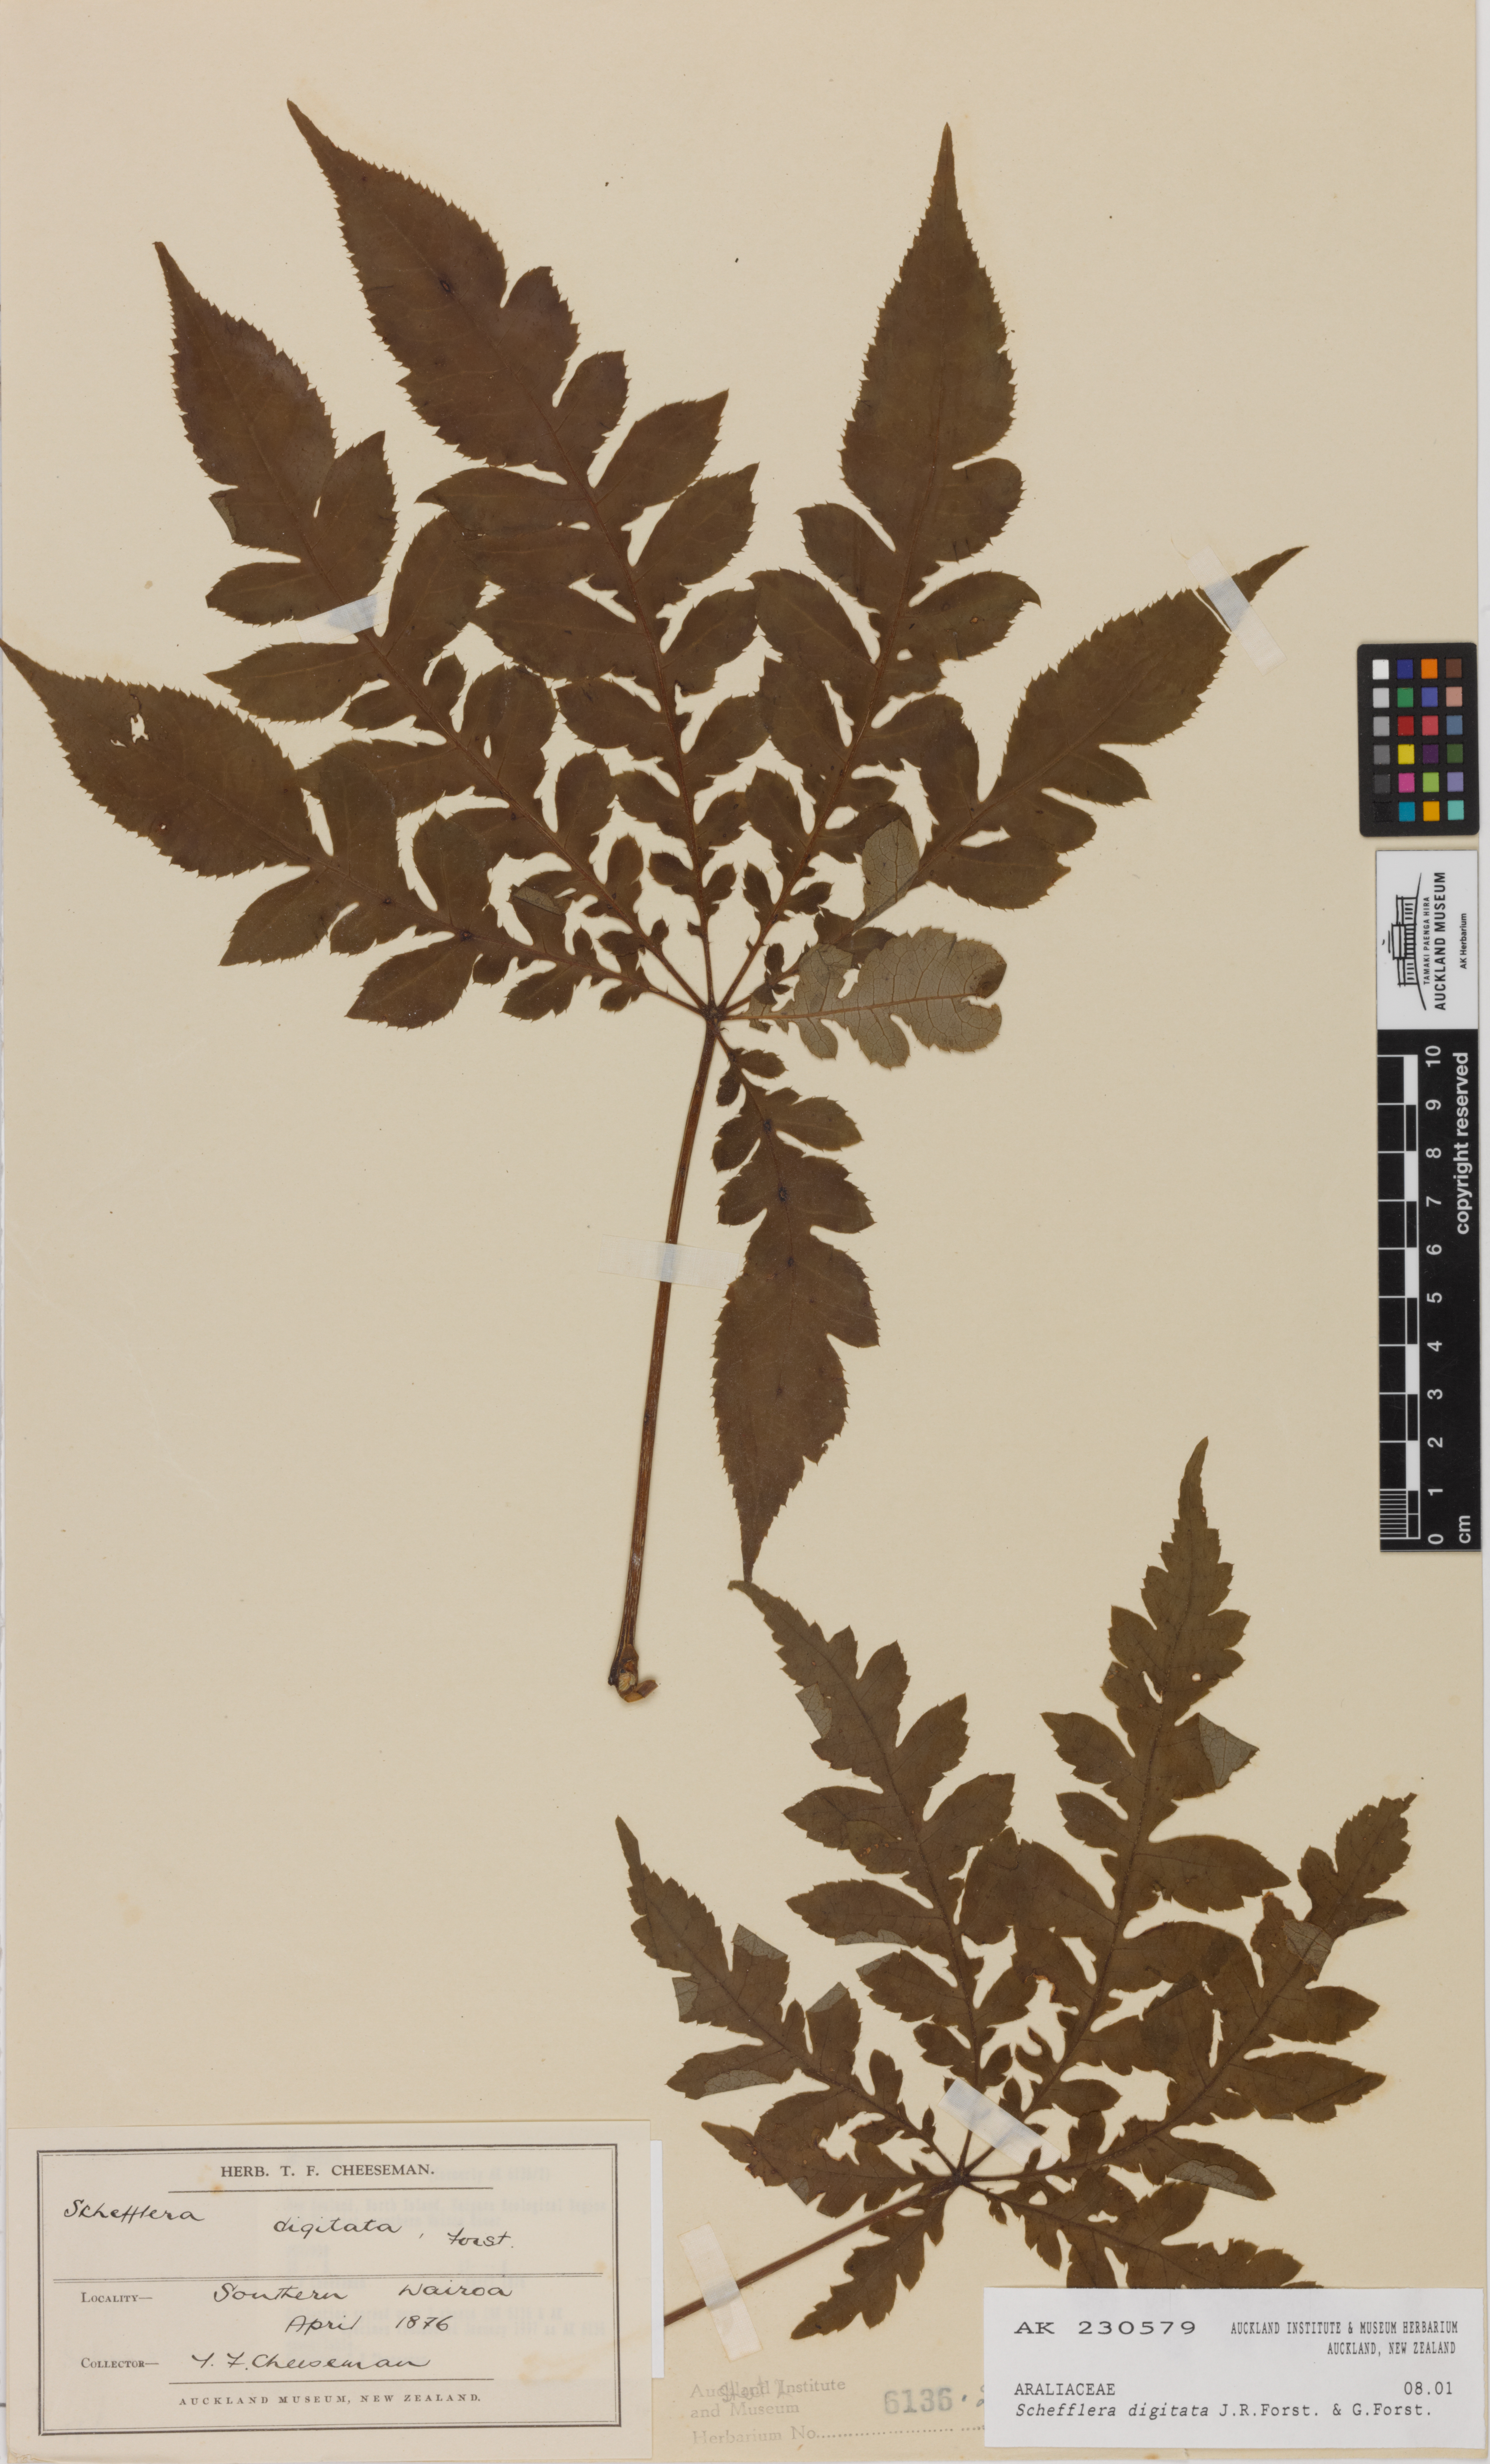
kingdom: Plantae
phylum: Tracheophyta
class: Magnoliopsida
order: Apiales
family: Araliaceae
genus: Schefflera
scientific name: Schefflera digitata
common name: Pate
